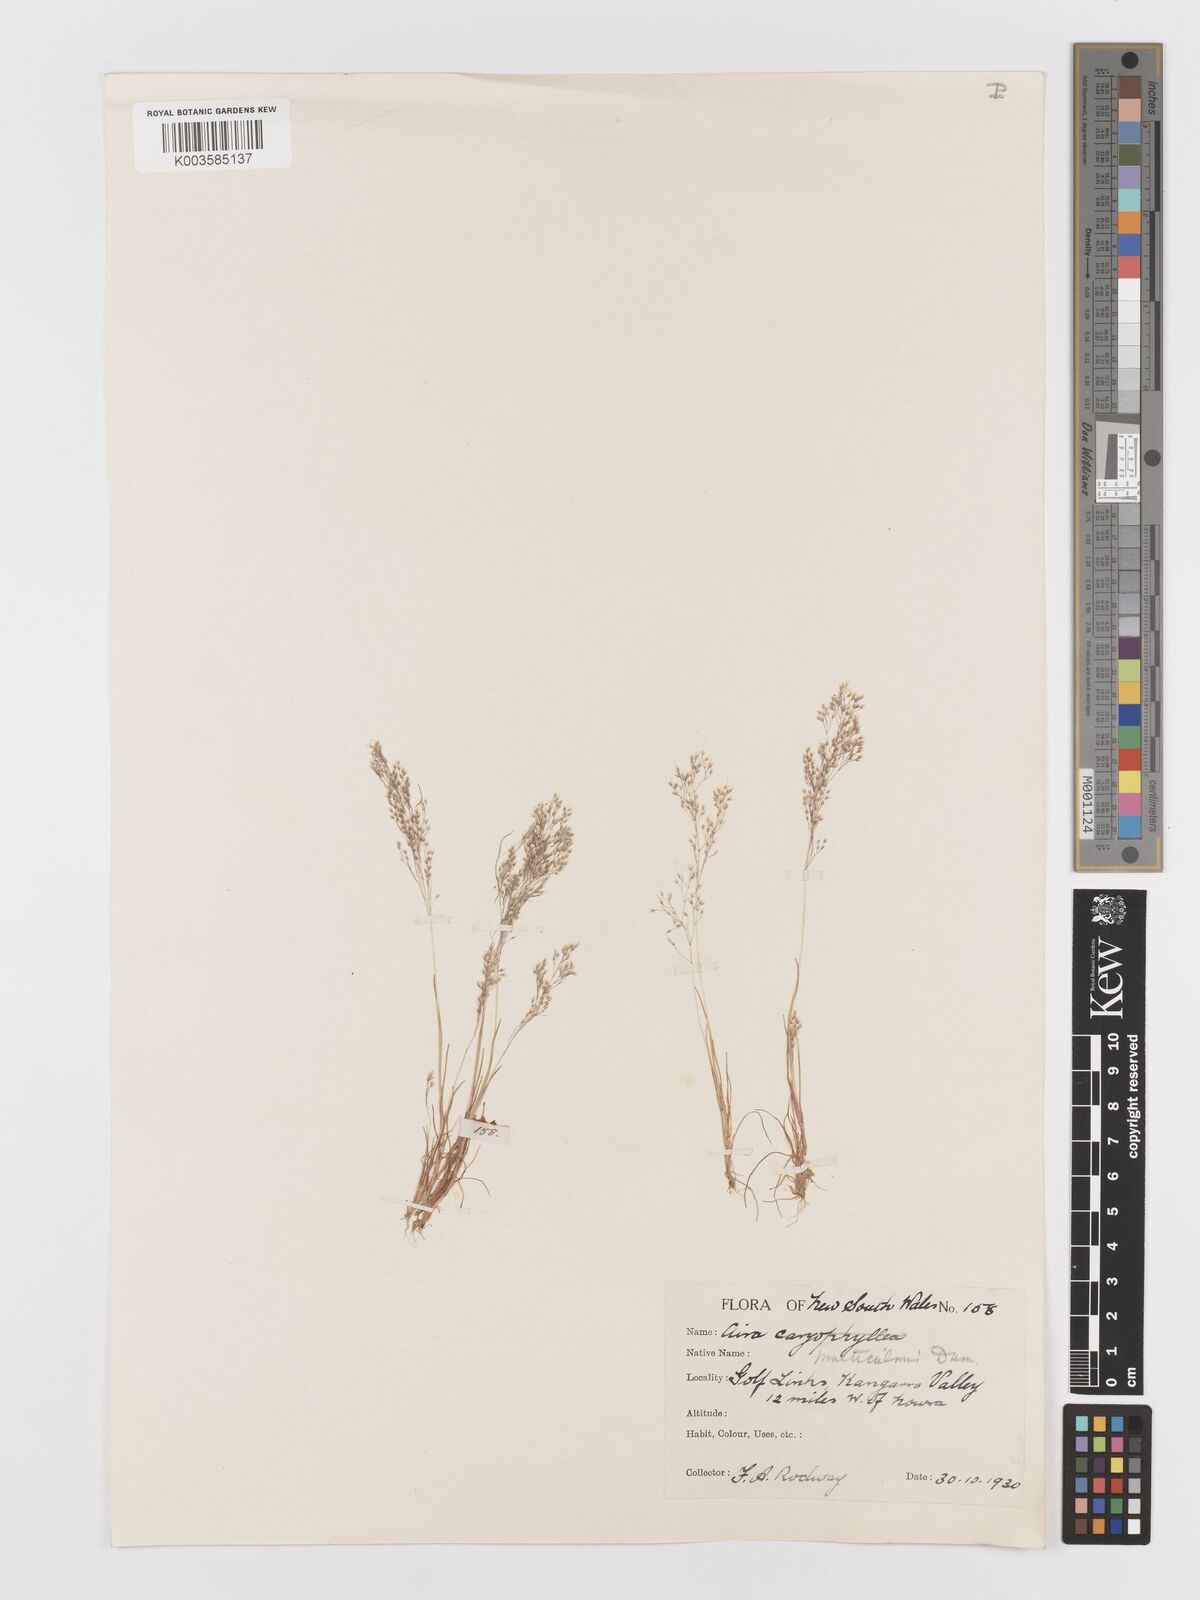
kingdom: Plantae
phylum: Tracheophyta
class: Liliopsida
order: Poales
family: Poaceae
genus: Aira
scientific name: Aira cupaniana
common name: Silver hairgrass
